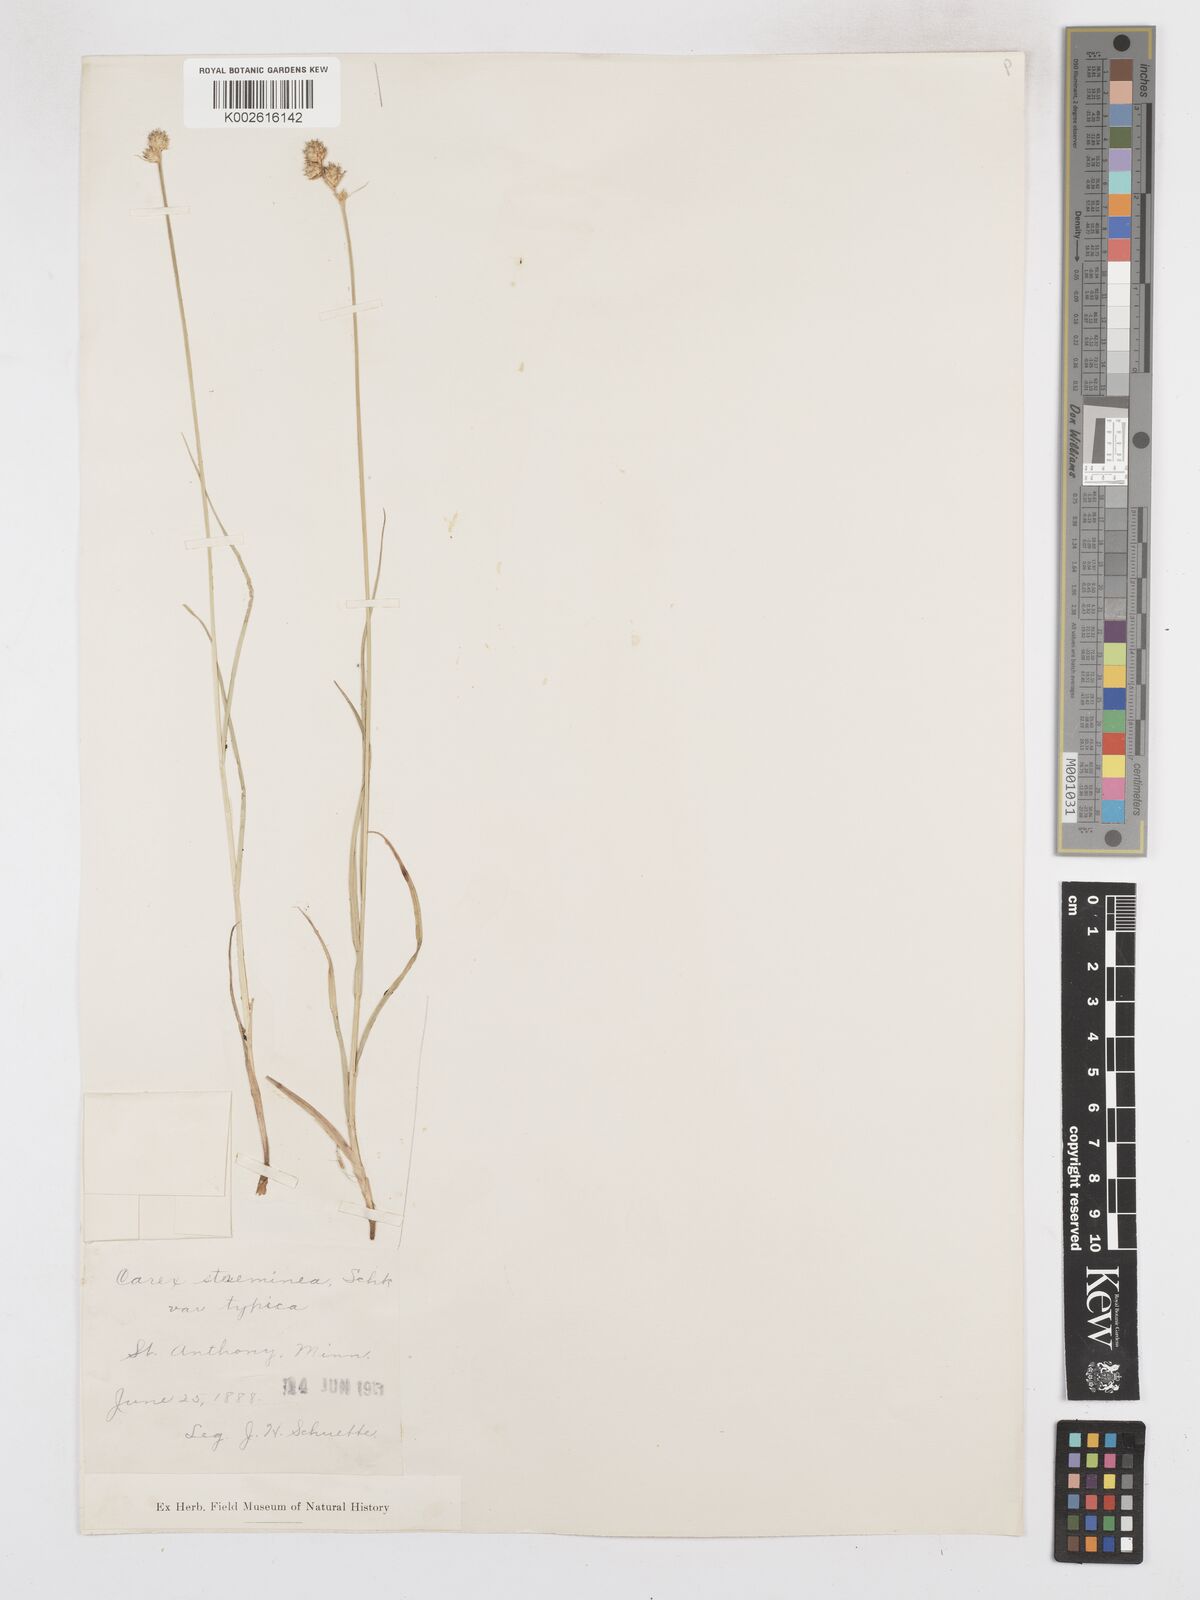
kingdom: Plantae
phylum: Tracheophyta
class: Liliopsida
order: Poales
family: Cyperaceae
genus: Carex
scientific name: Carex brevior
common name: Brevior sedge
